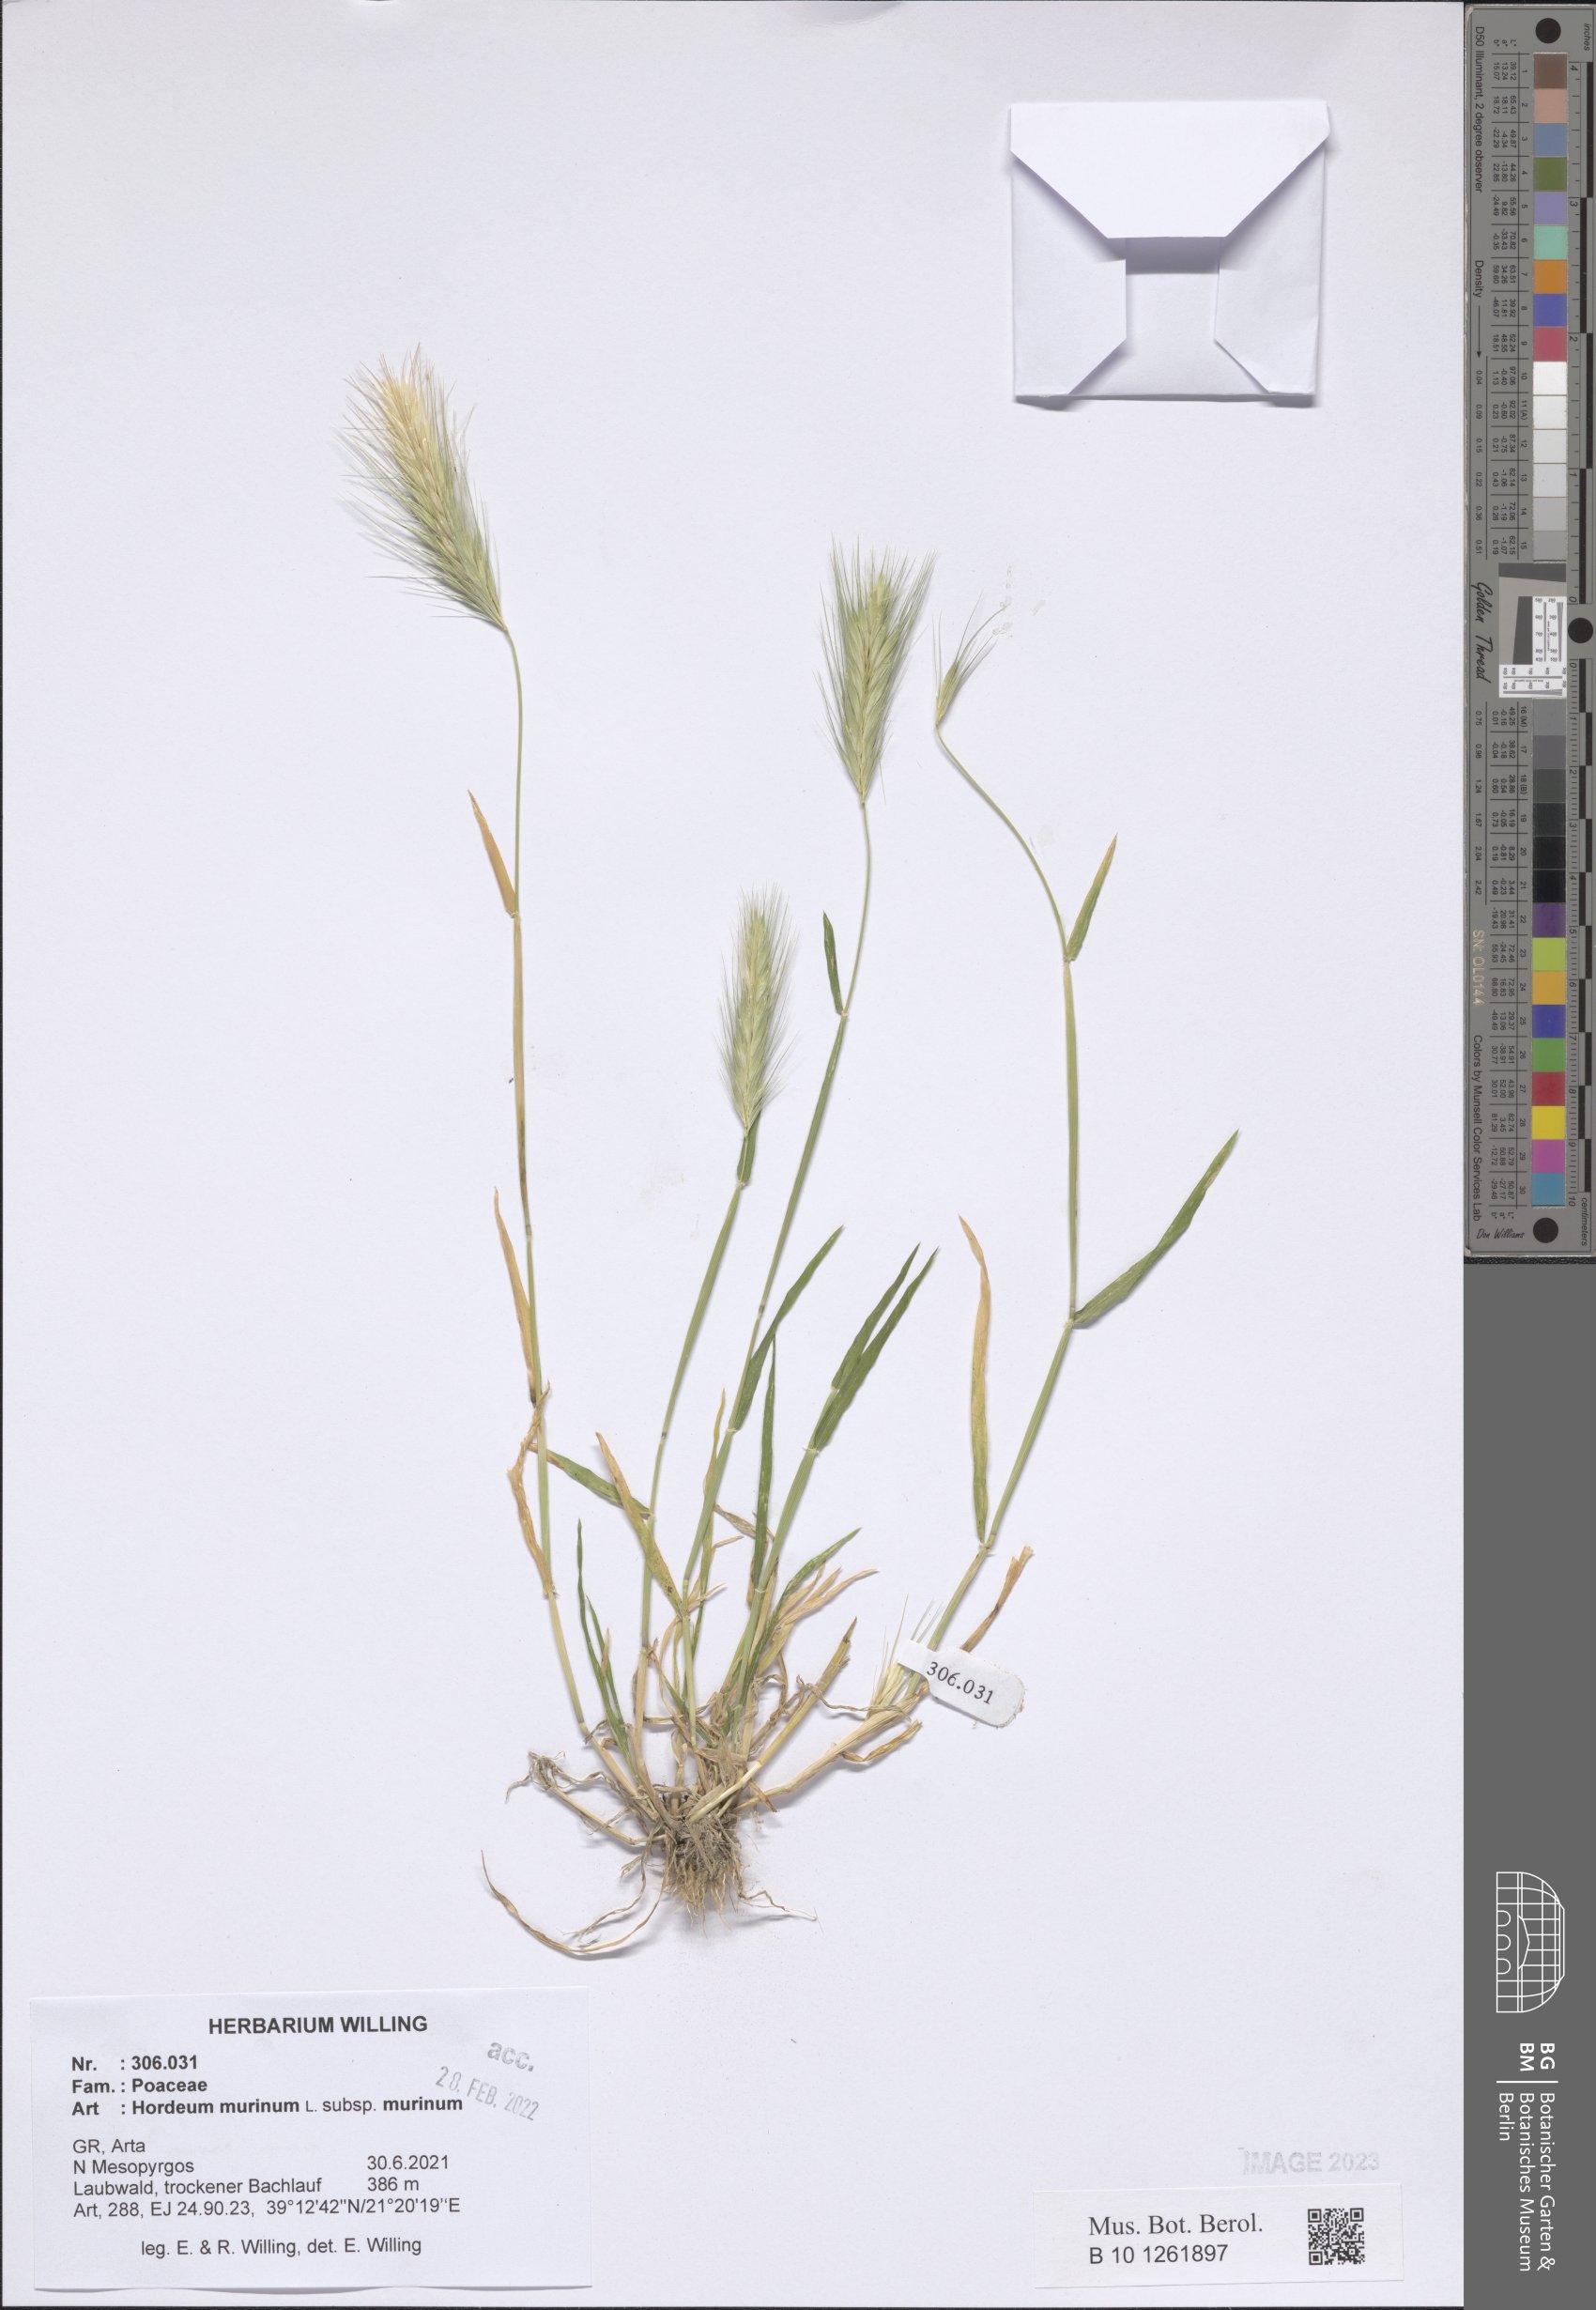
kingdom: Plantae
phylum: Tracheophyta
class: Liliopsida
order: Poales
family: Poaceae
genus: Hordeum
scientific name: Hordeum murinum
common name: Wall barley
